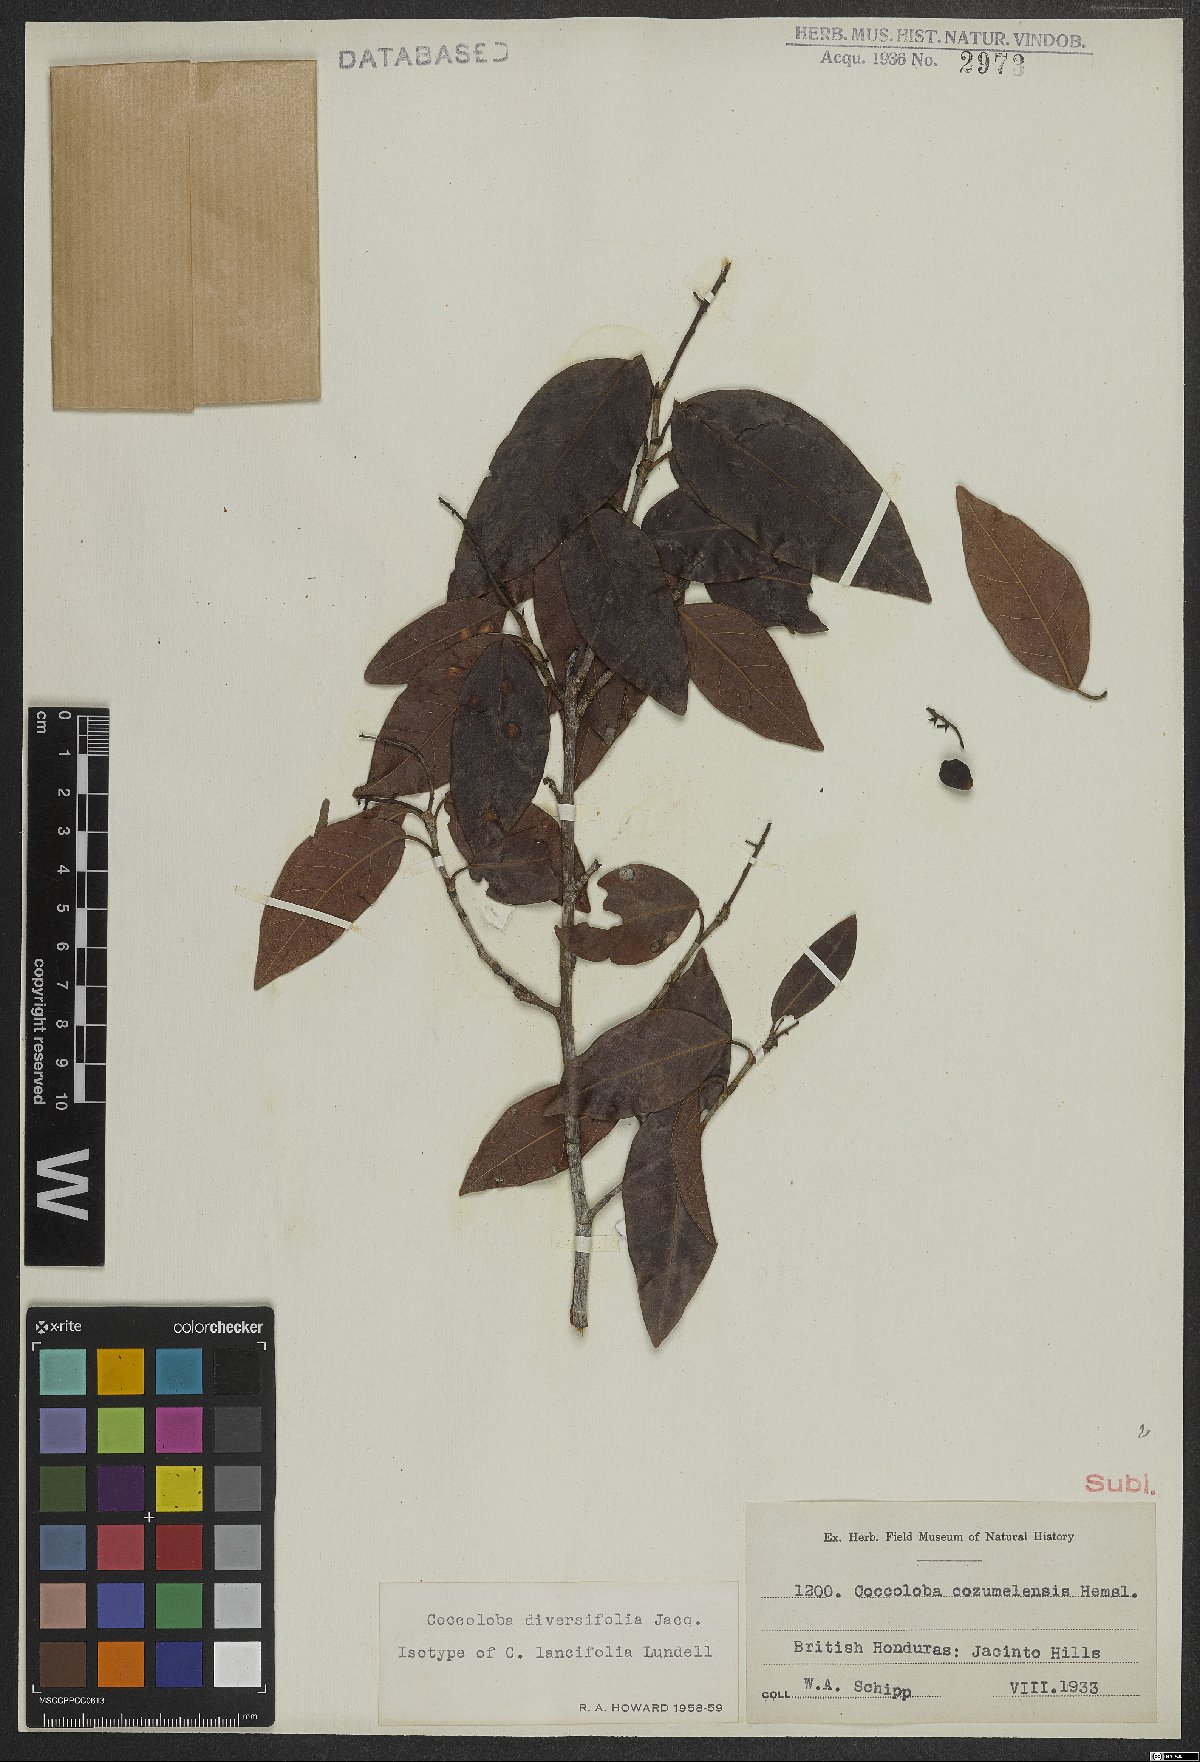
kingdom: Plantae
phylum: Tracheophyta
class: Magnoliopsida
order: Caryophyllales
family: Polygonaceae
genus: Coccoloba
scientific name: Coccoloba diversifolia
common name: Pigeon-plum
